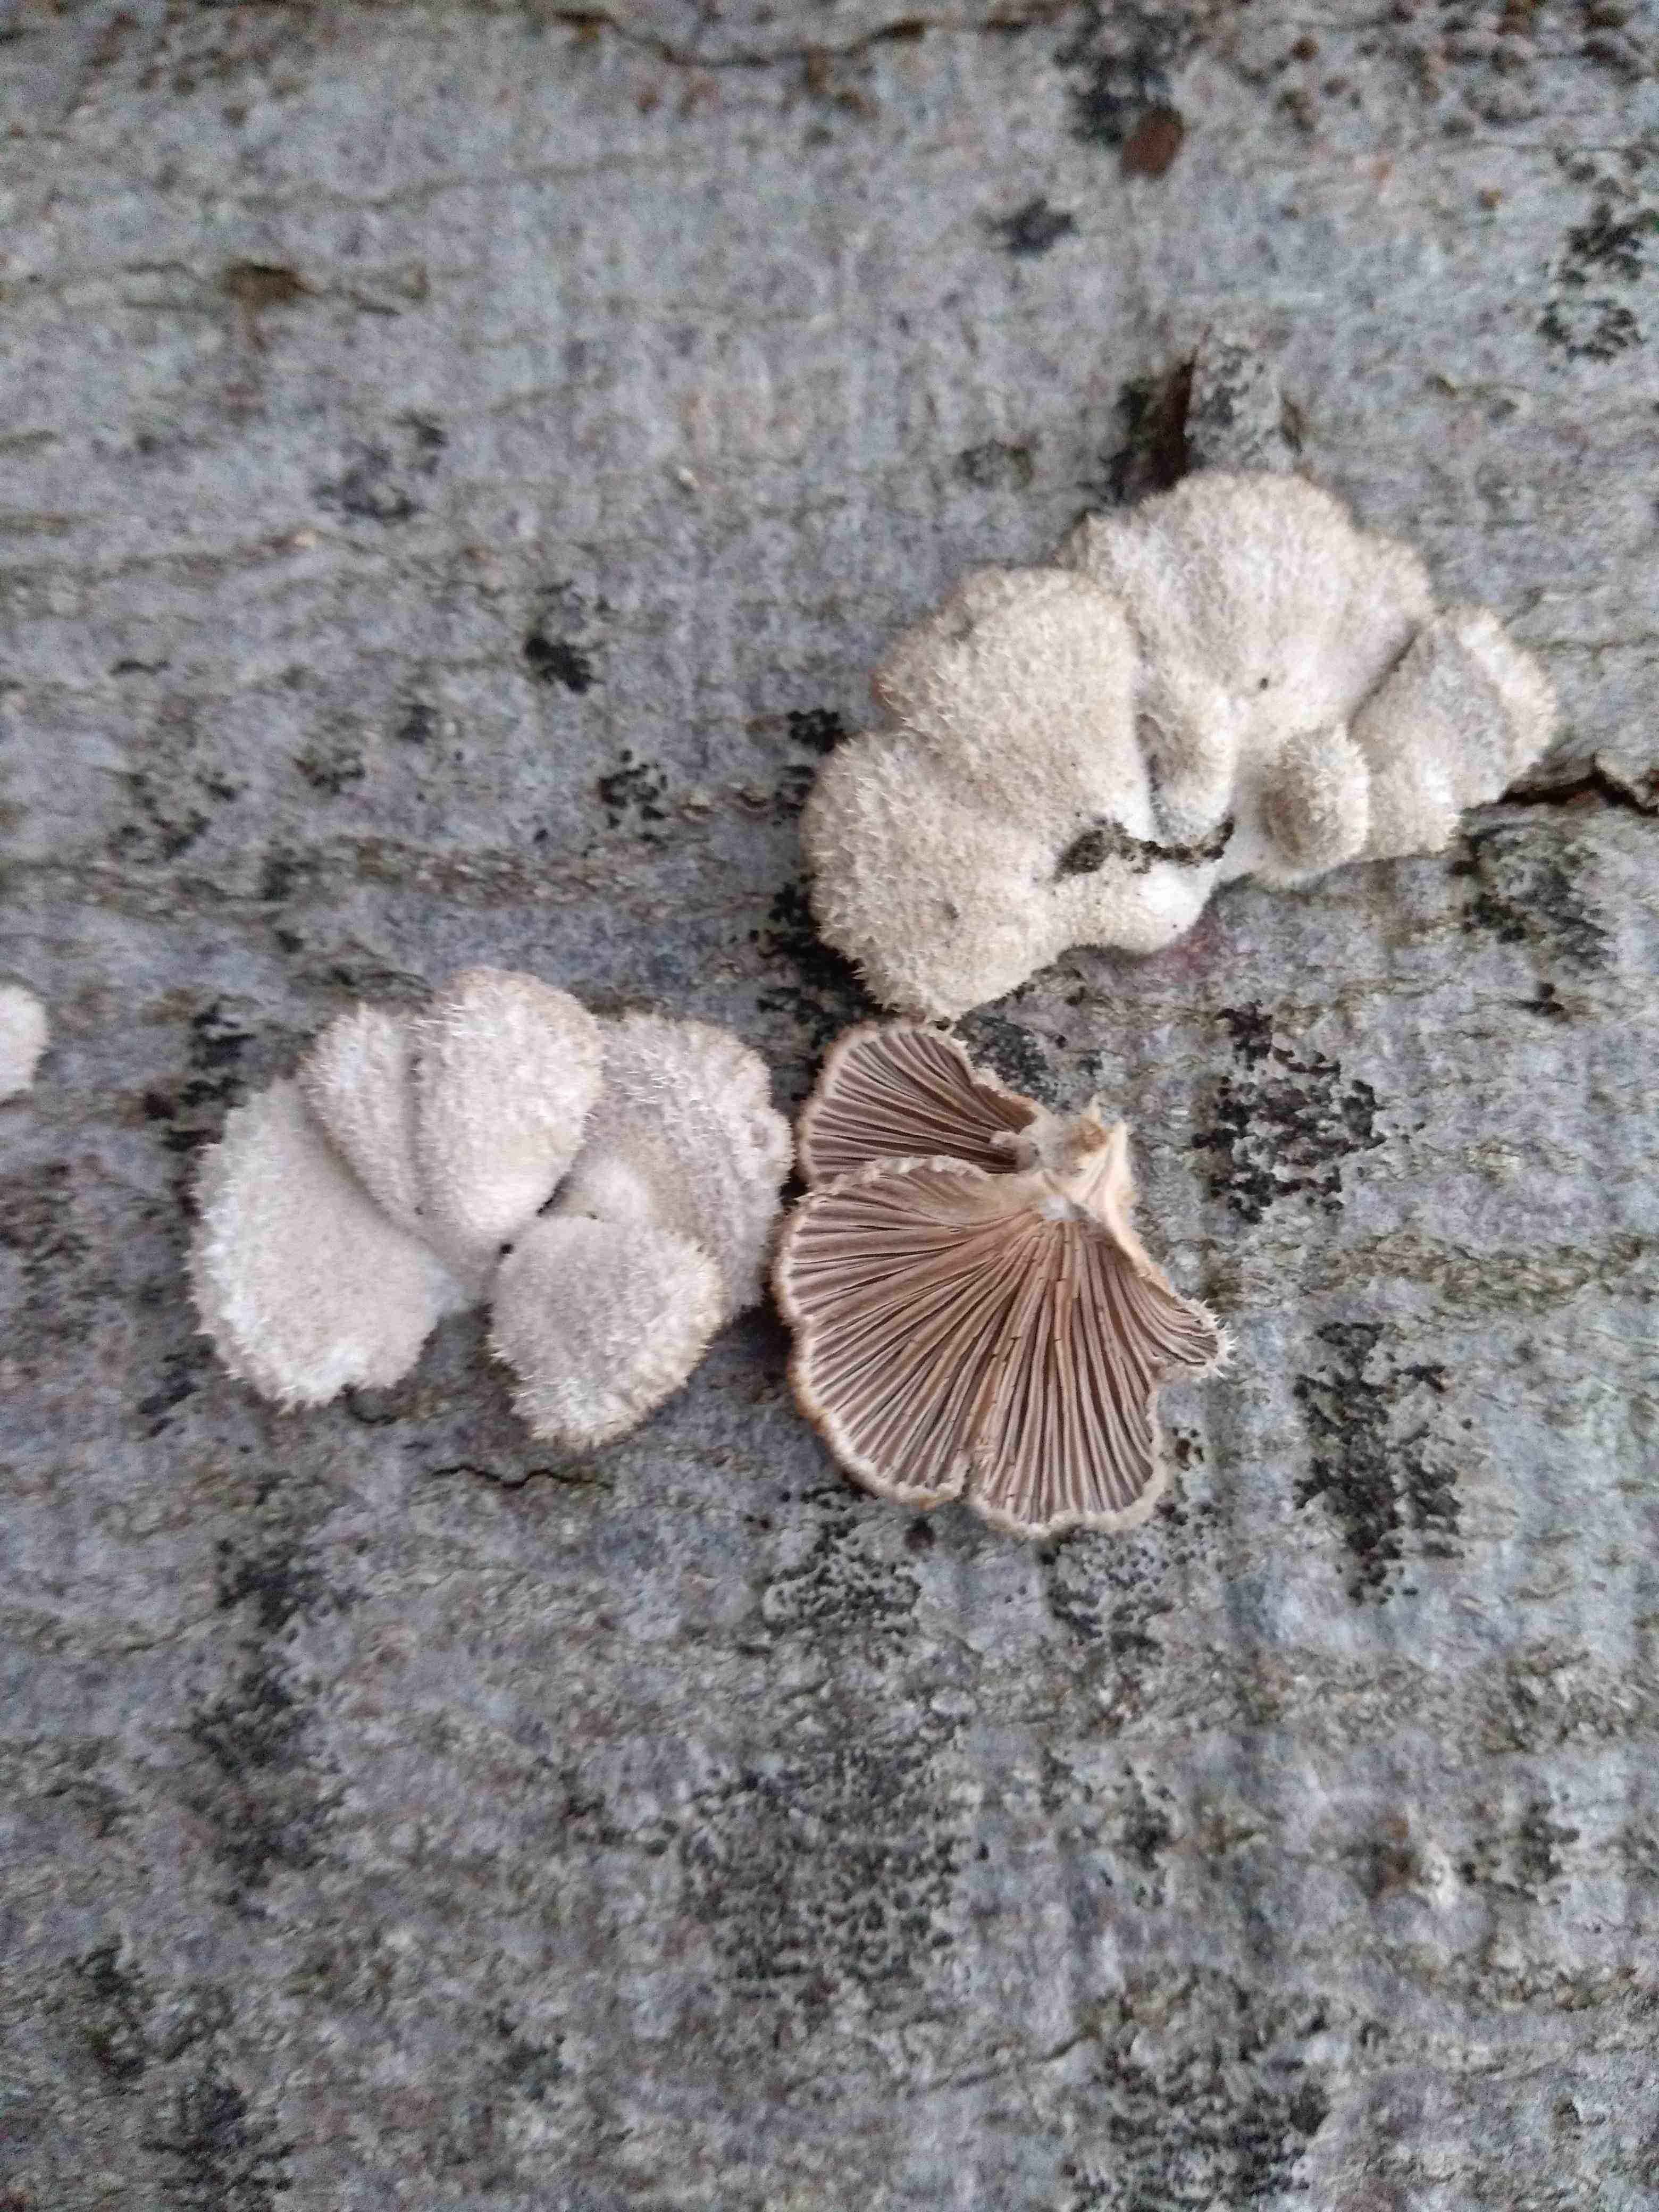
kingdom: Fungi
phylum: Basidiomycota
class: Agaricomycetes
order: Agaricales
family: Schizophyllaceae
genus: Schizophyllum
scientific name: Schizophyllum commune
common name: kløvblad
